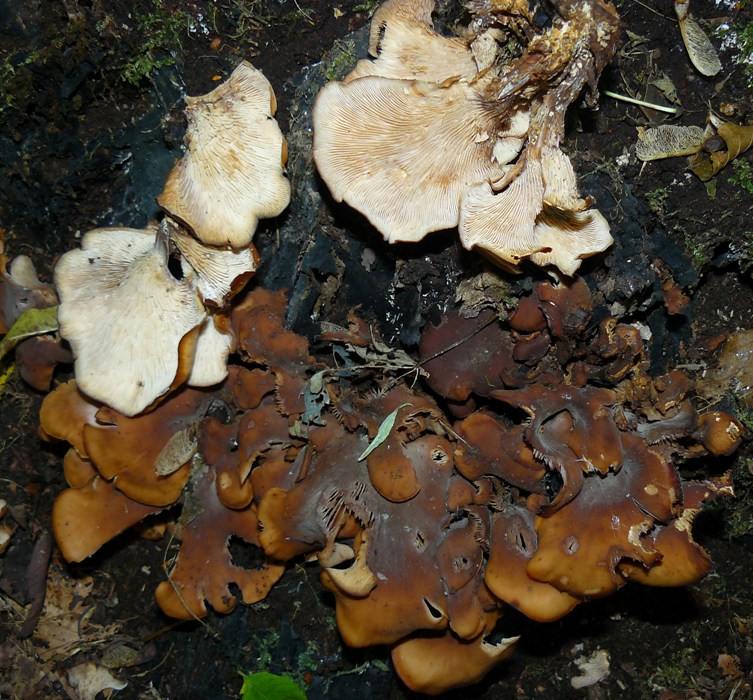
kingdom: Fungi
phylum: Basidiomycota
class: Agaricomycetes
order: Russulales
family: Auriscalpiaceae
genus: Lentinellus
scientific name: Lentinellus cochleatus
